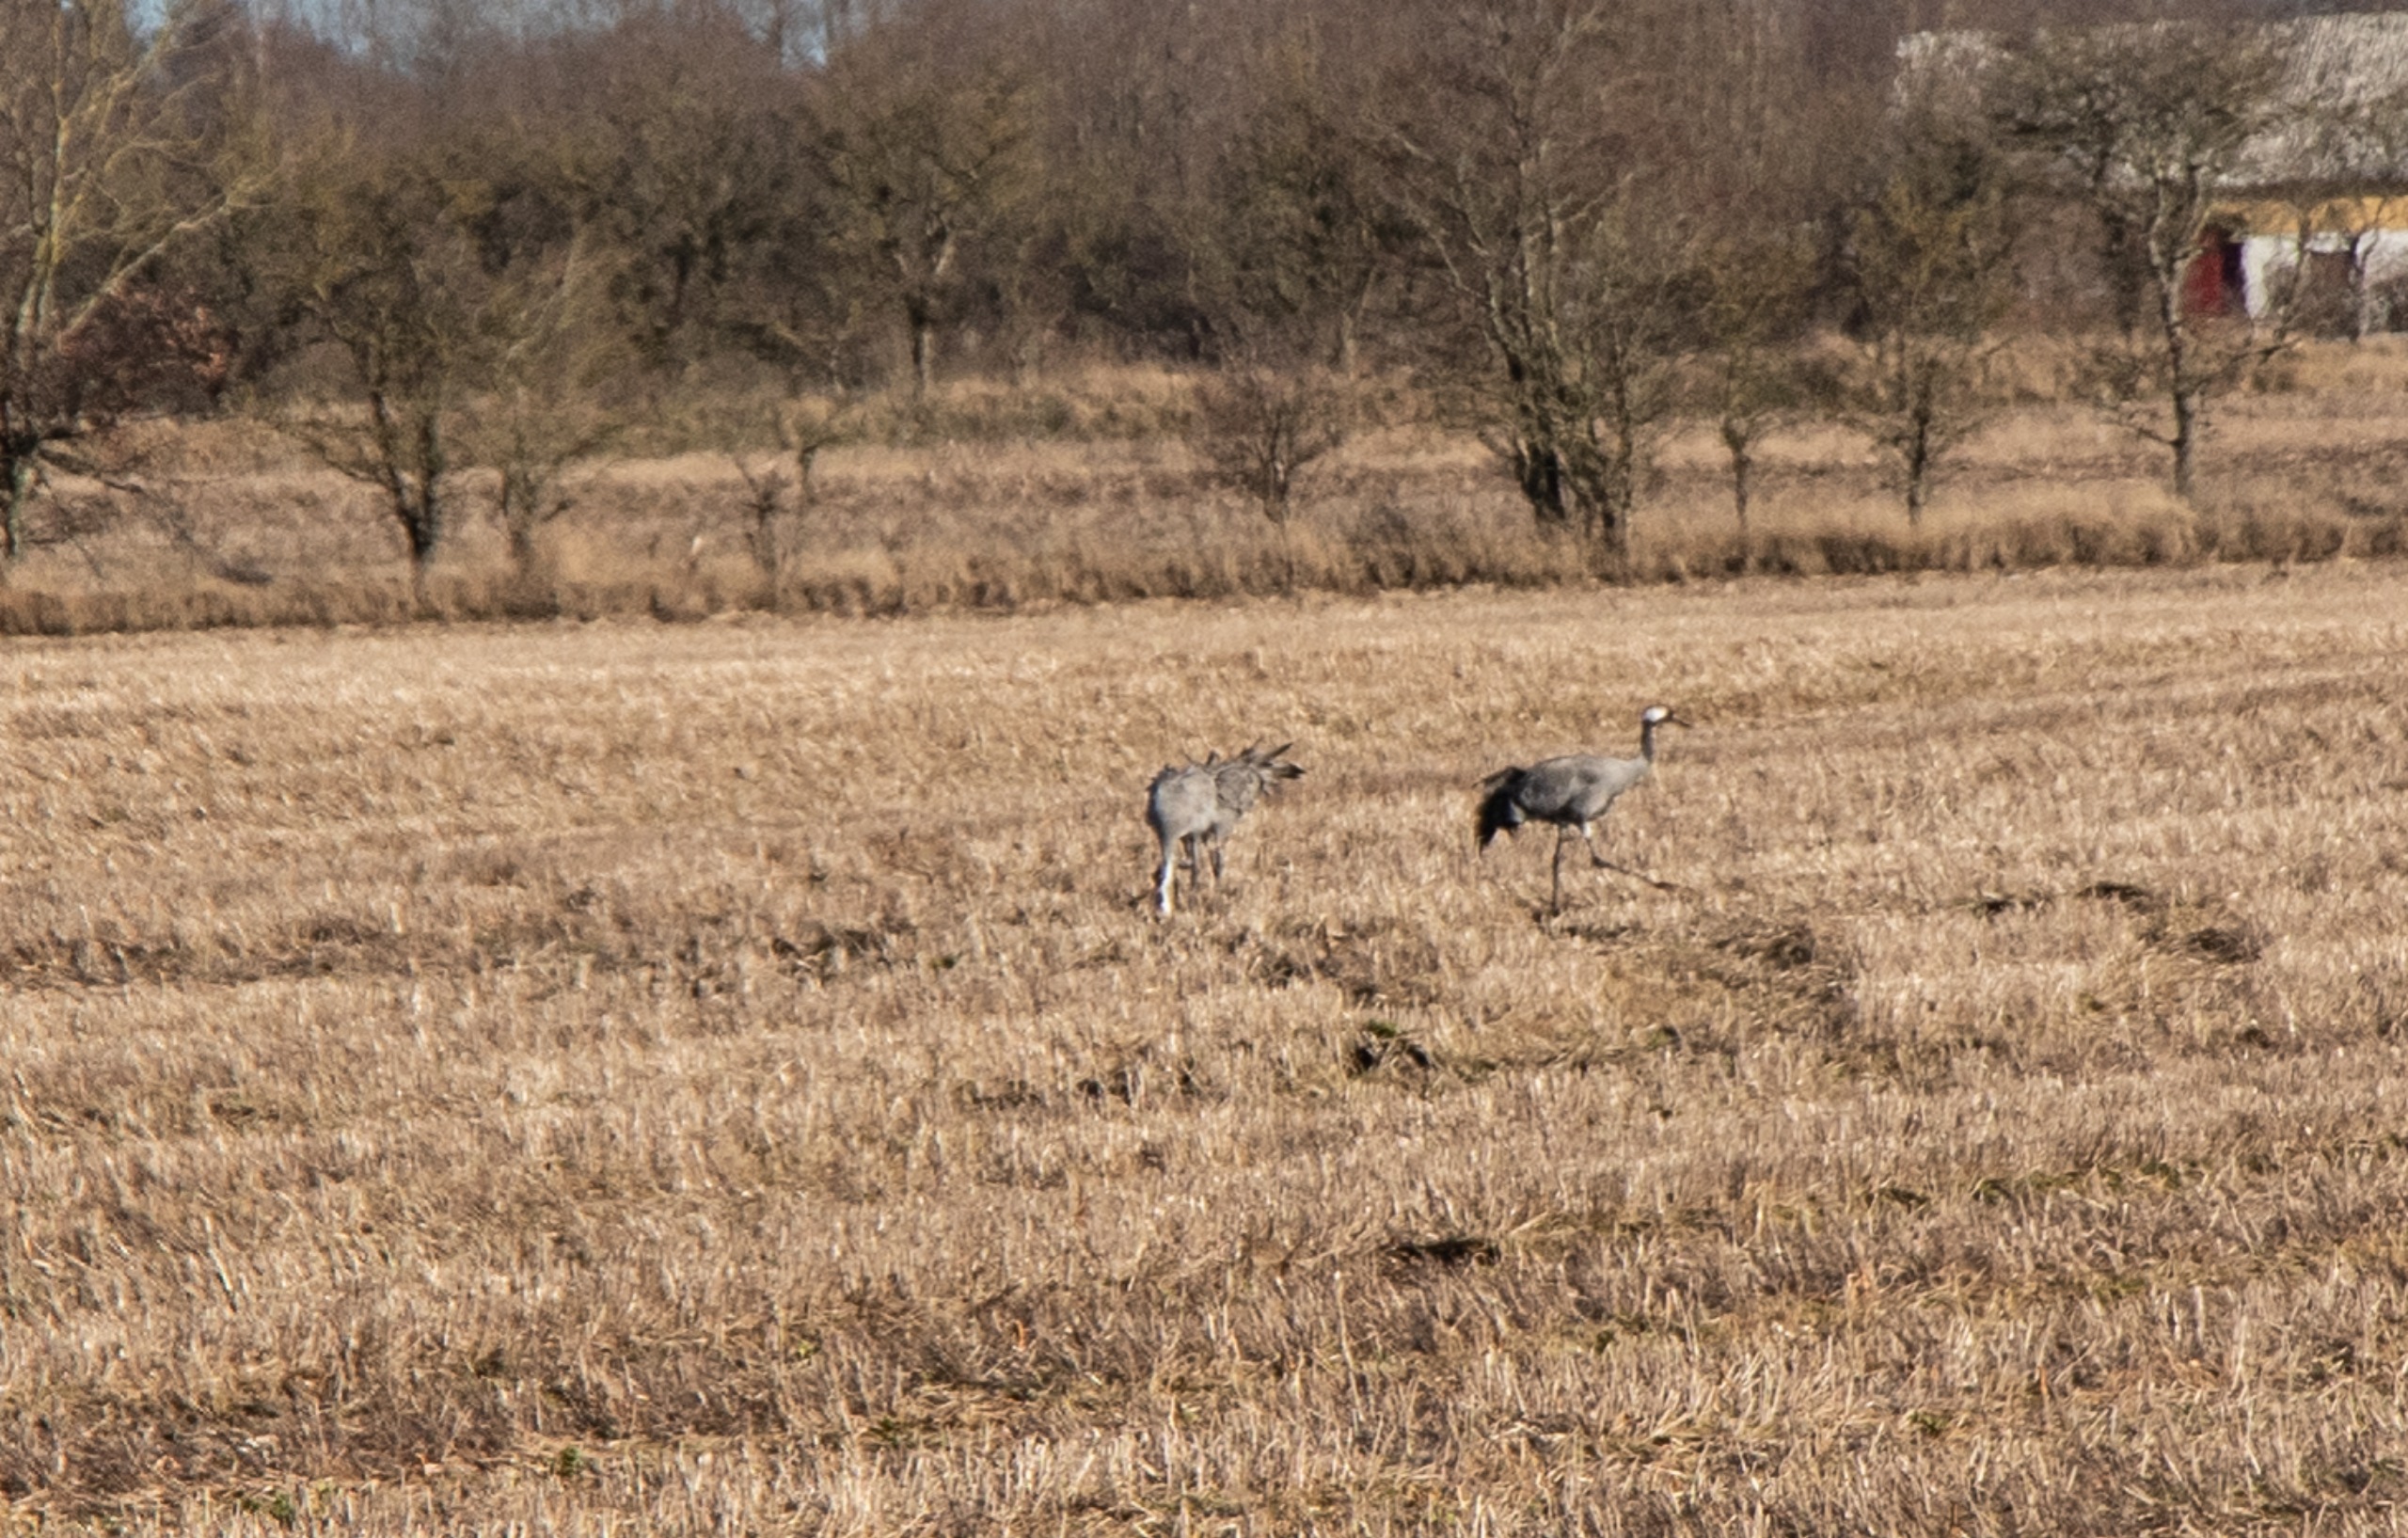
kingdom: Animalia
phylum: Chordata
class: Aves
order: Gruiformes
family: Gruidae
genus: Grus
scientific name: Grus grus
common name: Trane
